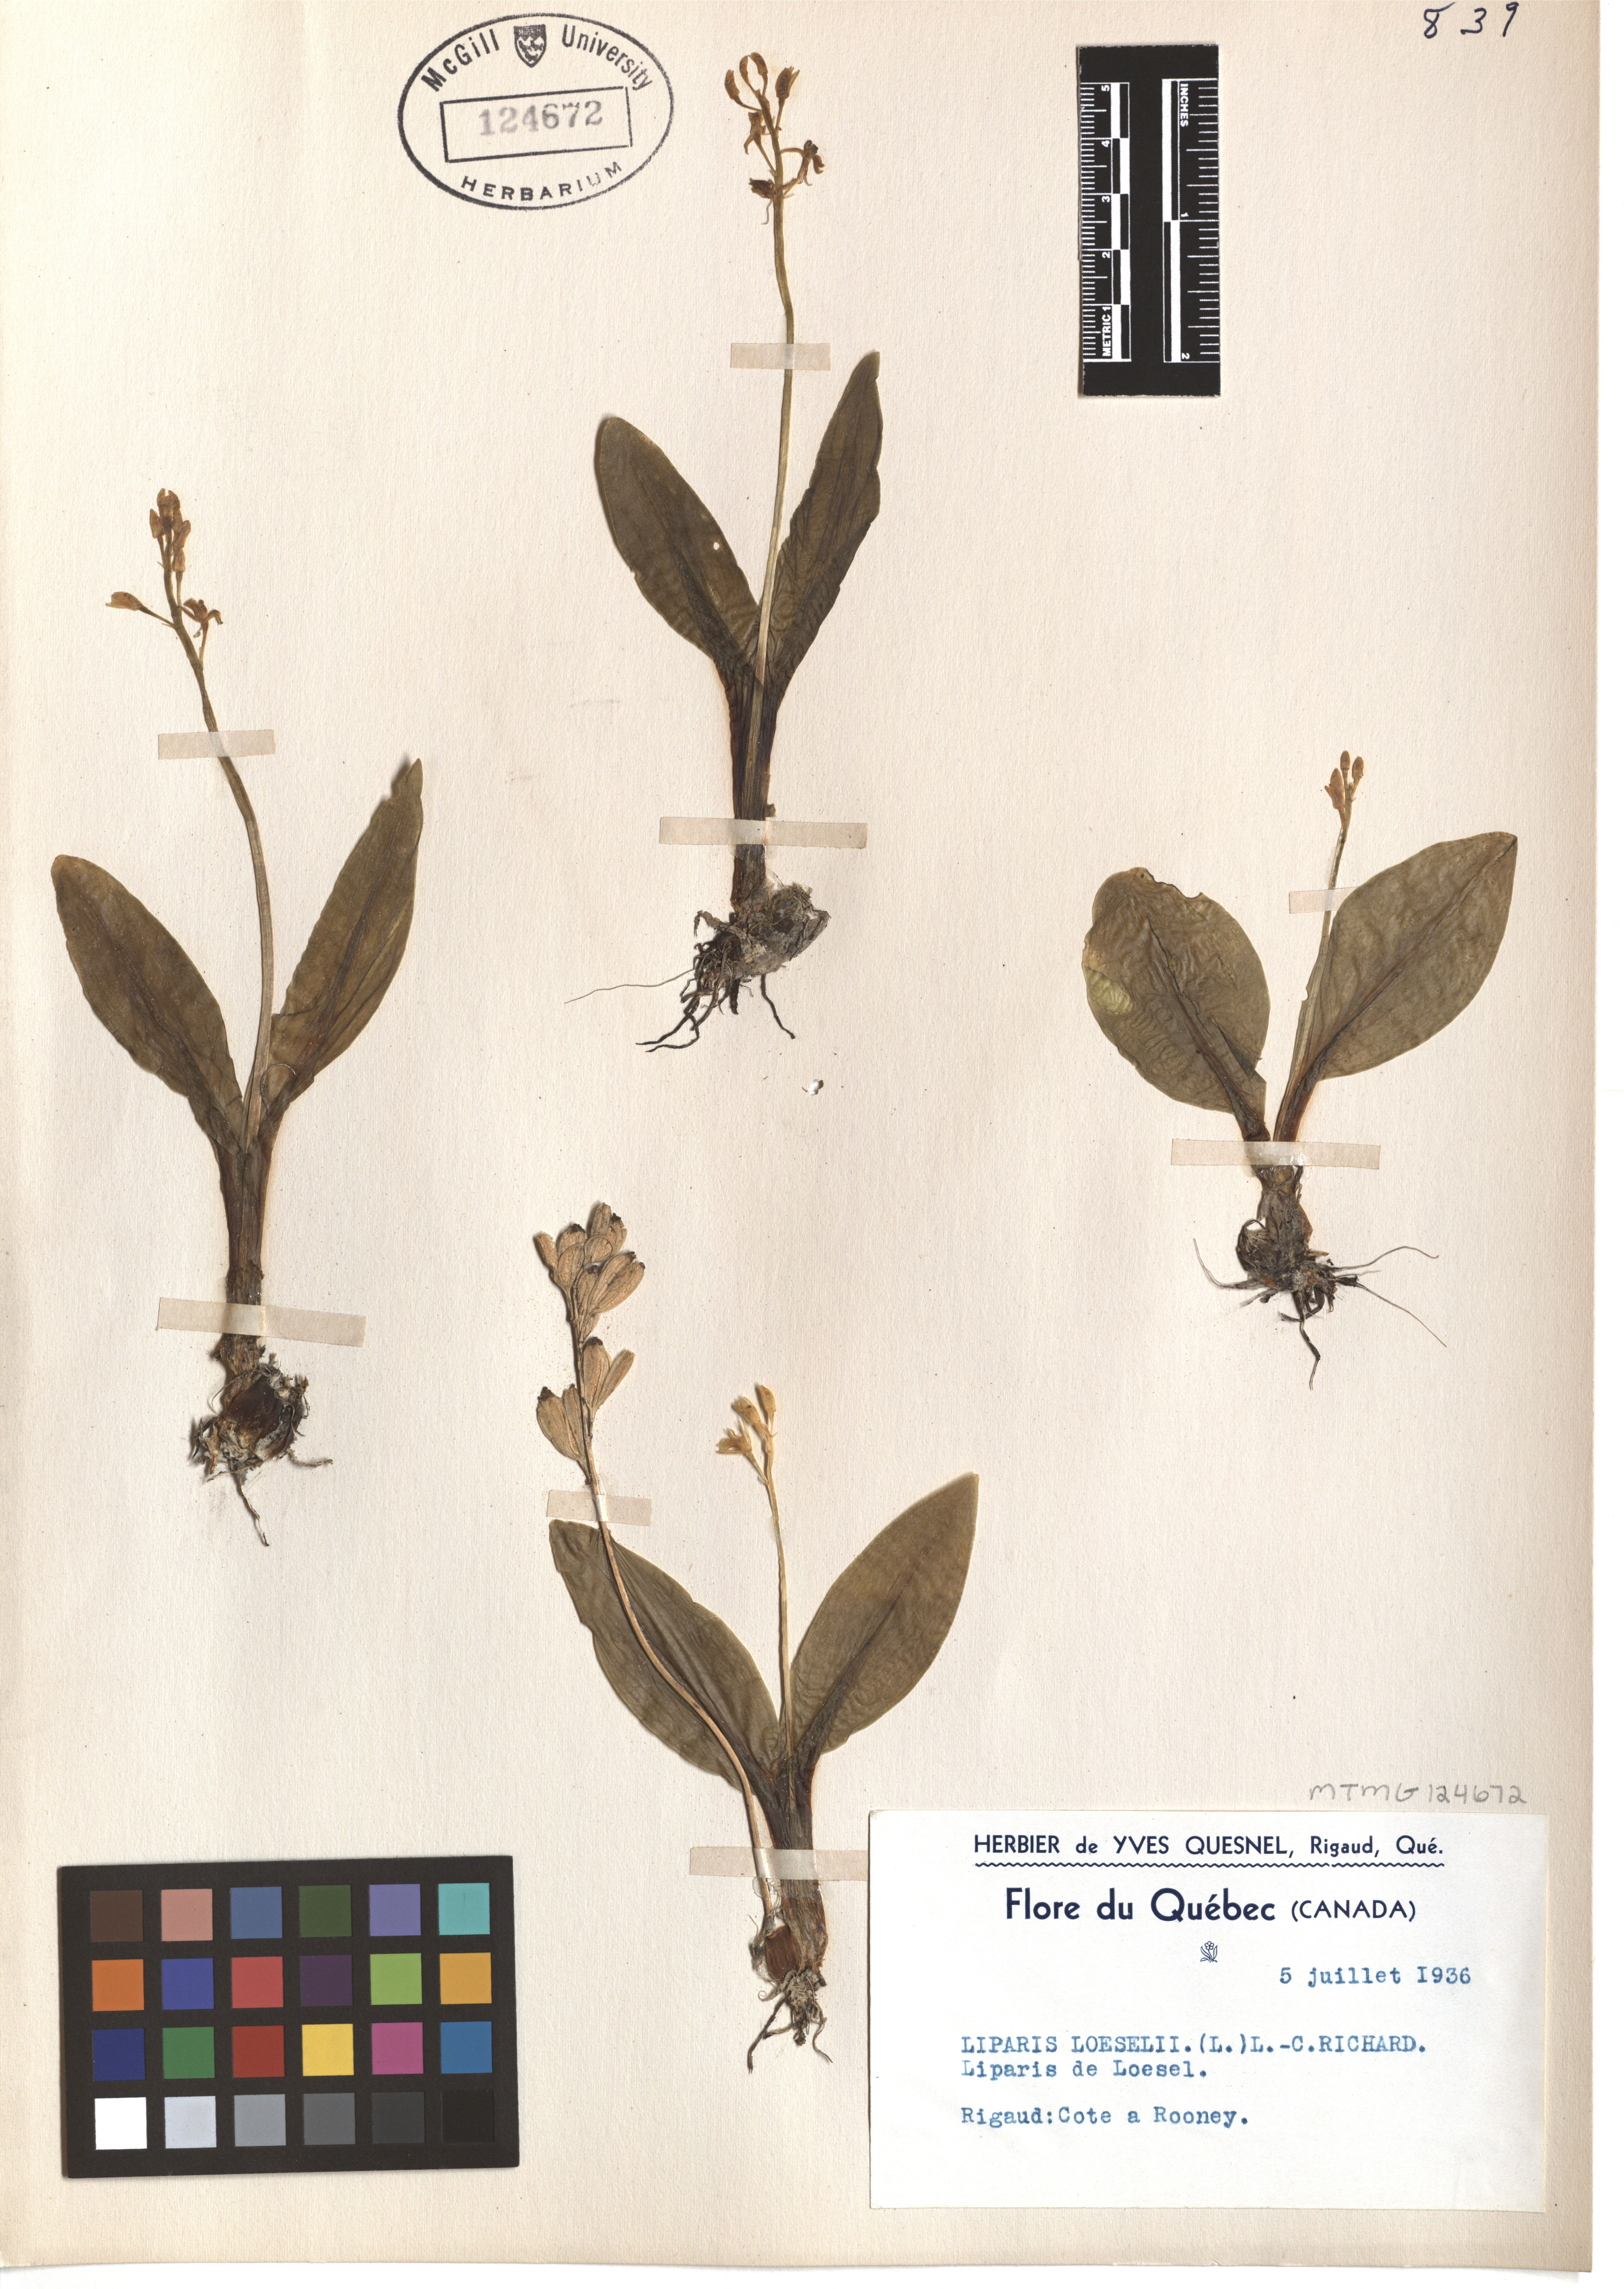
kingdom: Animalia
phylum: Arthropoda
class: Insecta
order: Coleoptera
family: Curculionidae
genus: Liparis
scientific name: Liparis loeselii
